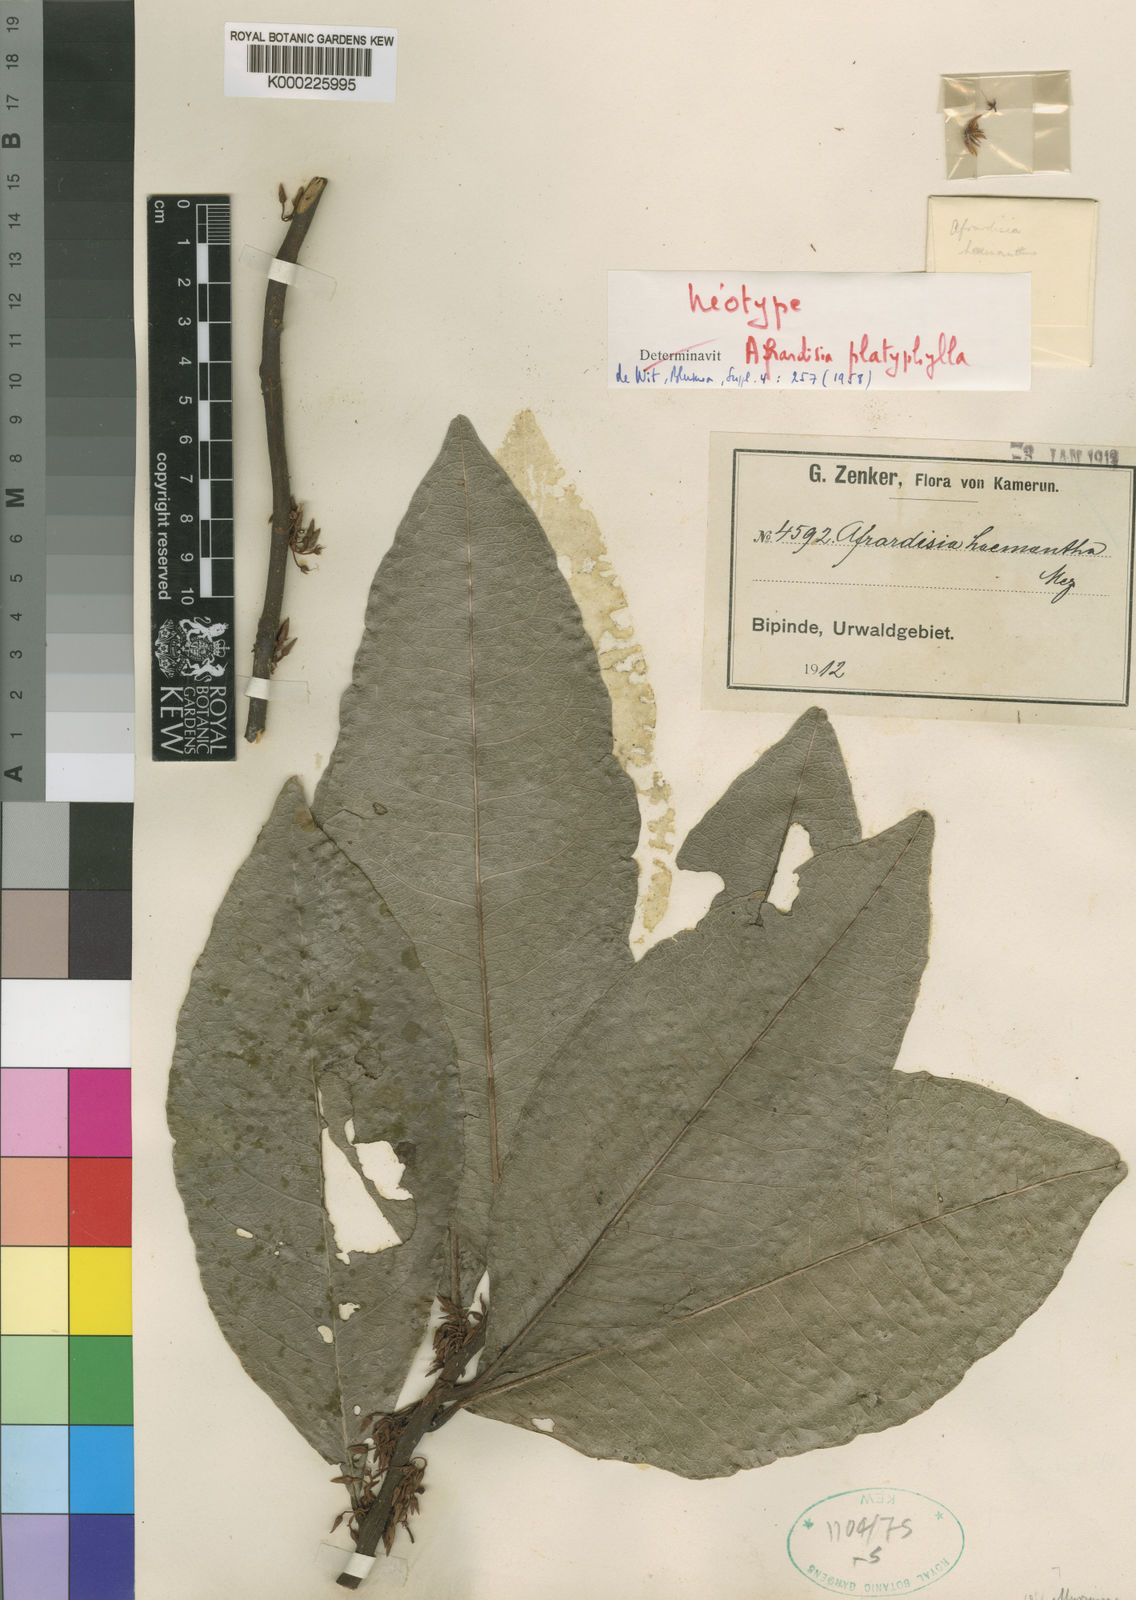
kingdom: Plantae
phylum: Tracheophyta
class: Magnoliopsida
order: Ericales
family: Primulaceae
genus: Ardisia
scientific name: Ardisia dekinderi
